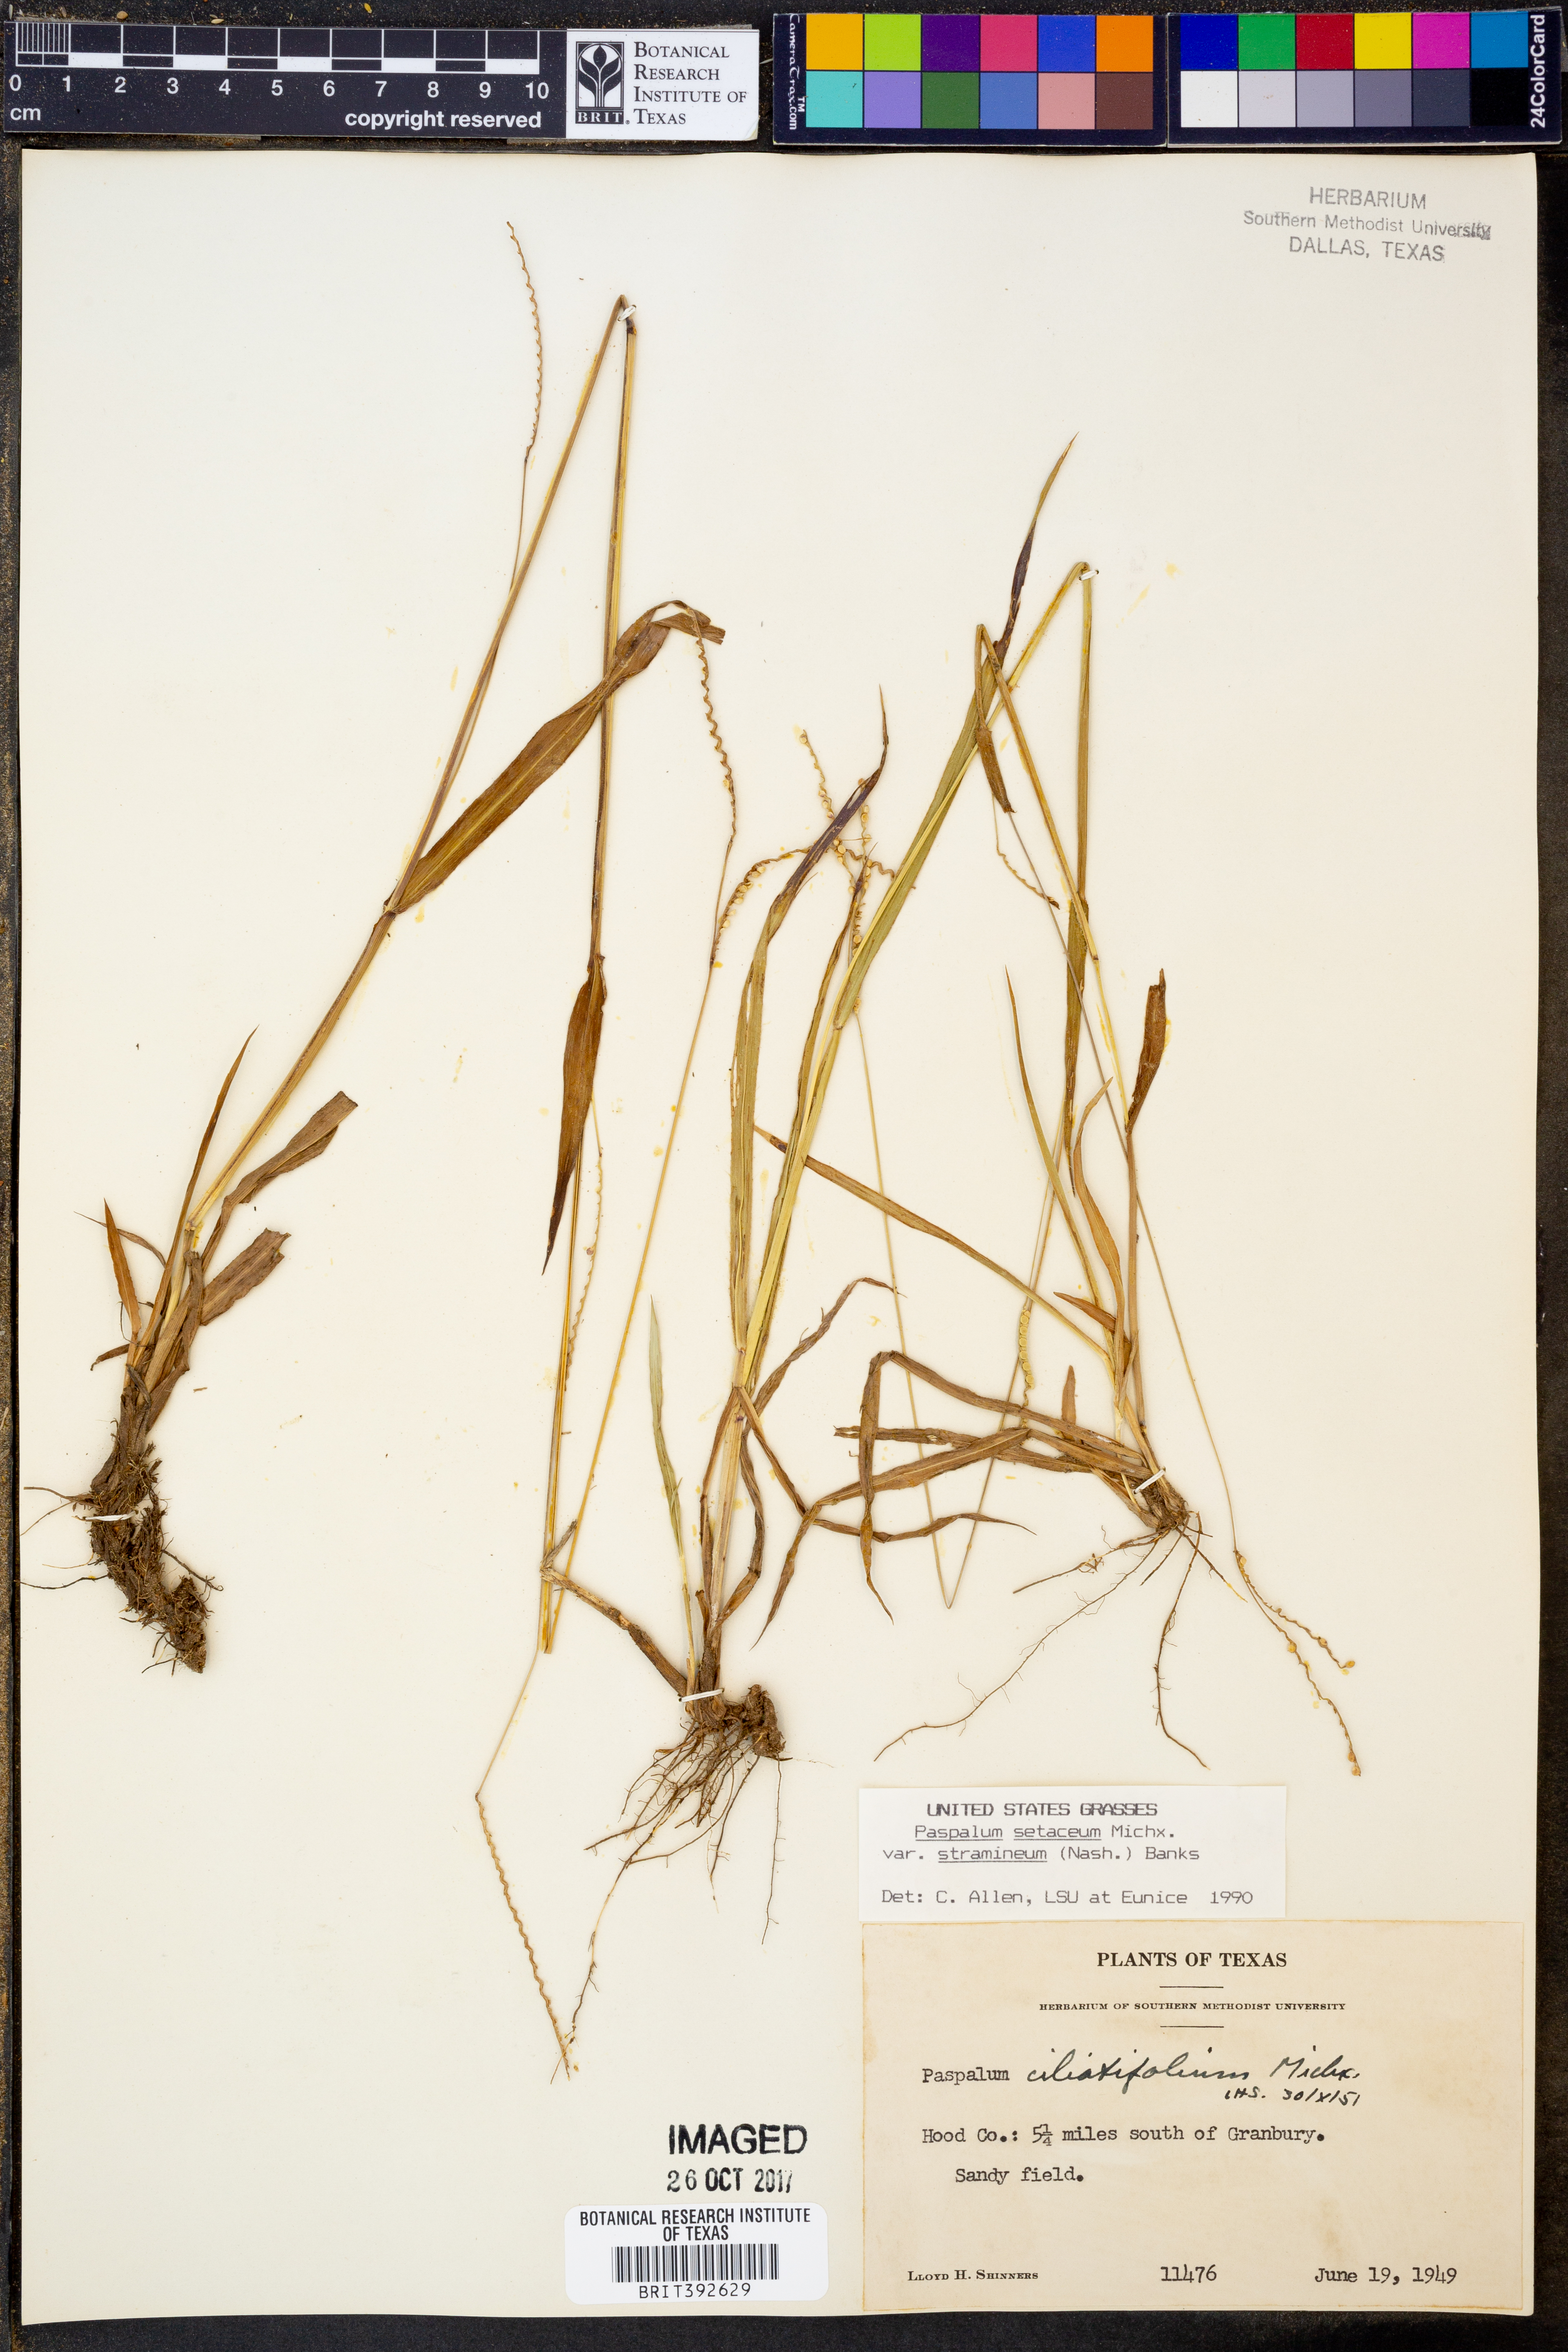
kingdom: Plantae
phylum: Tracheophyta
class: Liliopsida
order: Poales
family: Poaceae
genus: Paspalum
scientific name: Paspalum setaceum
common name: Slender paspalum
